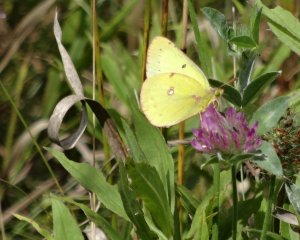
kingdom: Animalia
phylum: Arthropoda
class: Insecta
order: Lepidoptera
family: Pieridae
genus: Colias
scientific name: Colias philodice
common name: Clouded Sulphur
